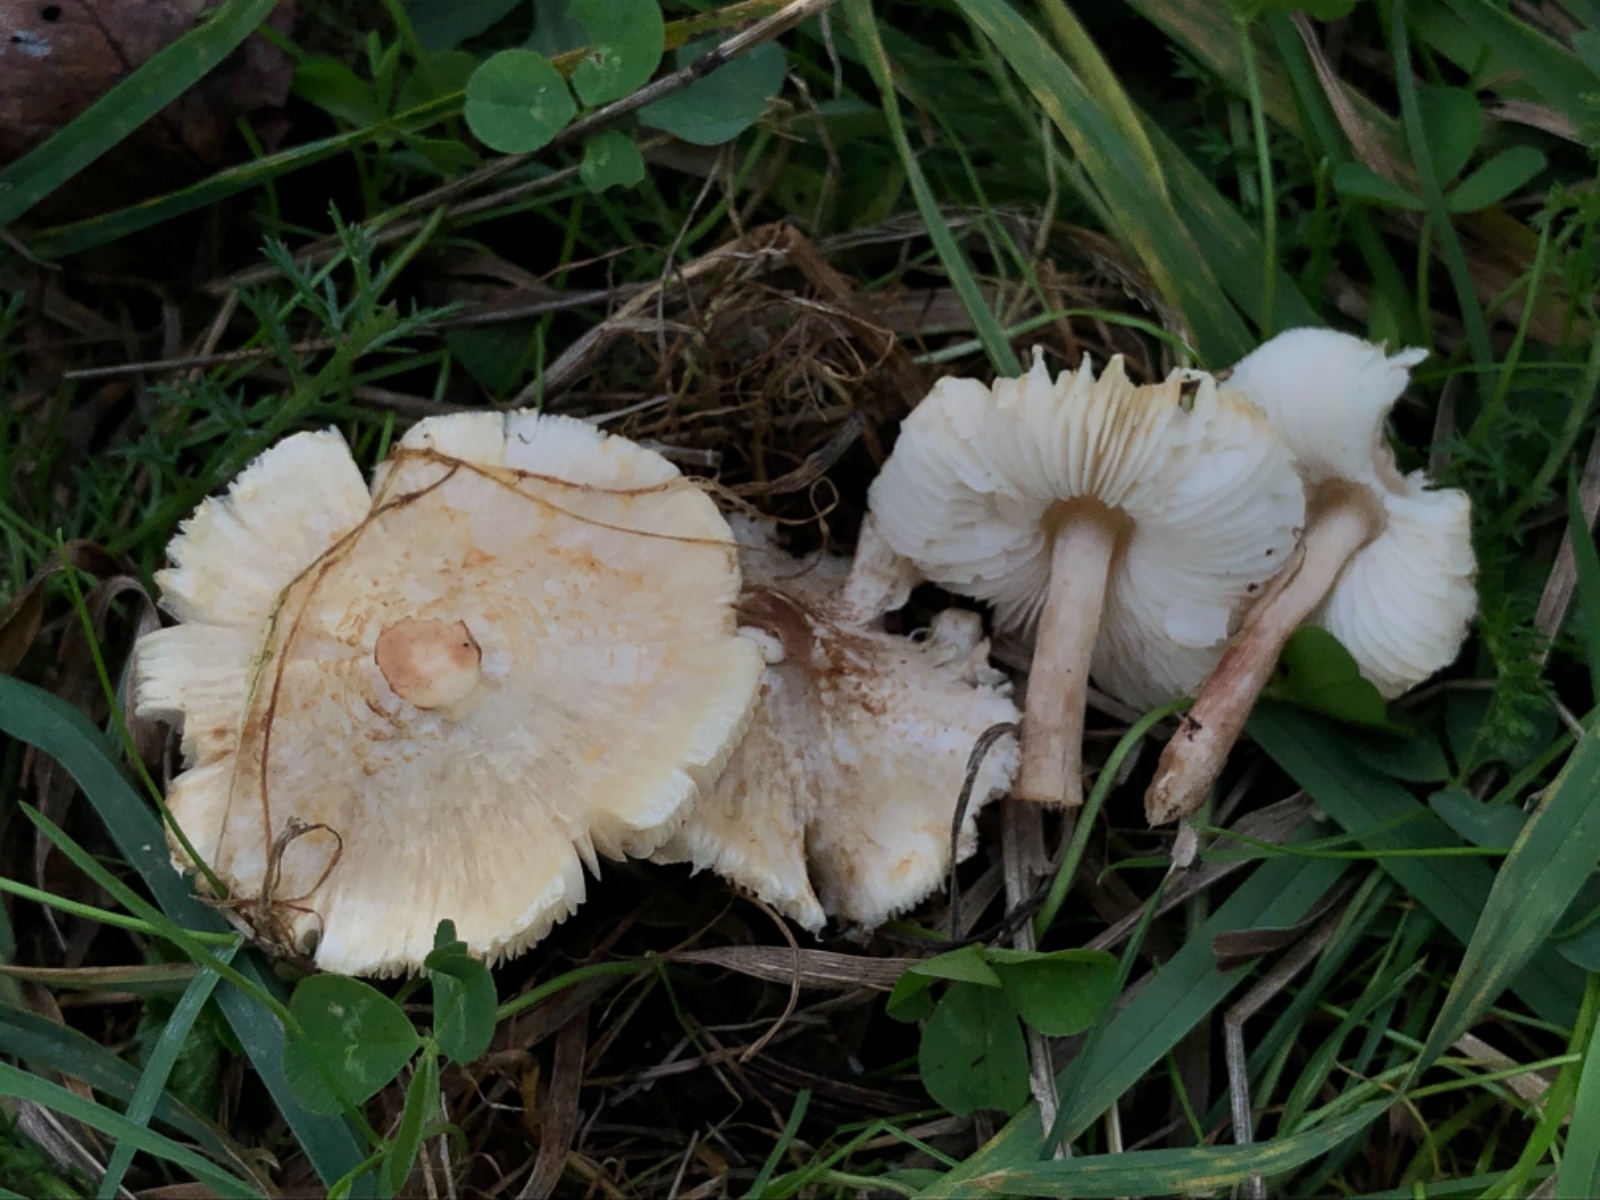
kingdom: Fungi
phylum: Basidiomycota
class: Agaricomycetes
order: Agaricales
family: Agaricaceae
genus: Lepiota
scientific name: Lepiota cristata
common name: stinkende parasolhat
